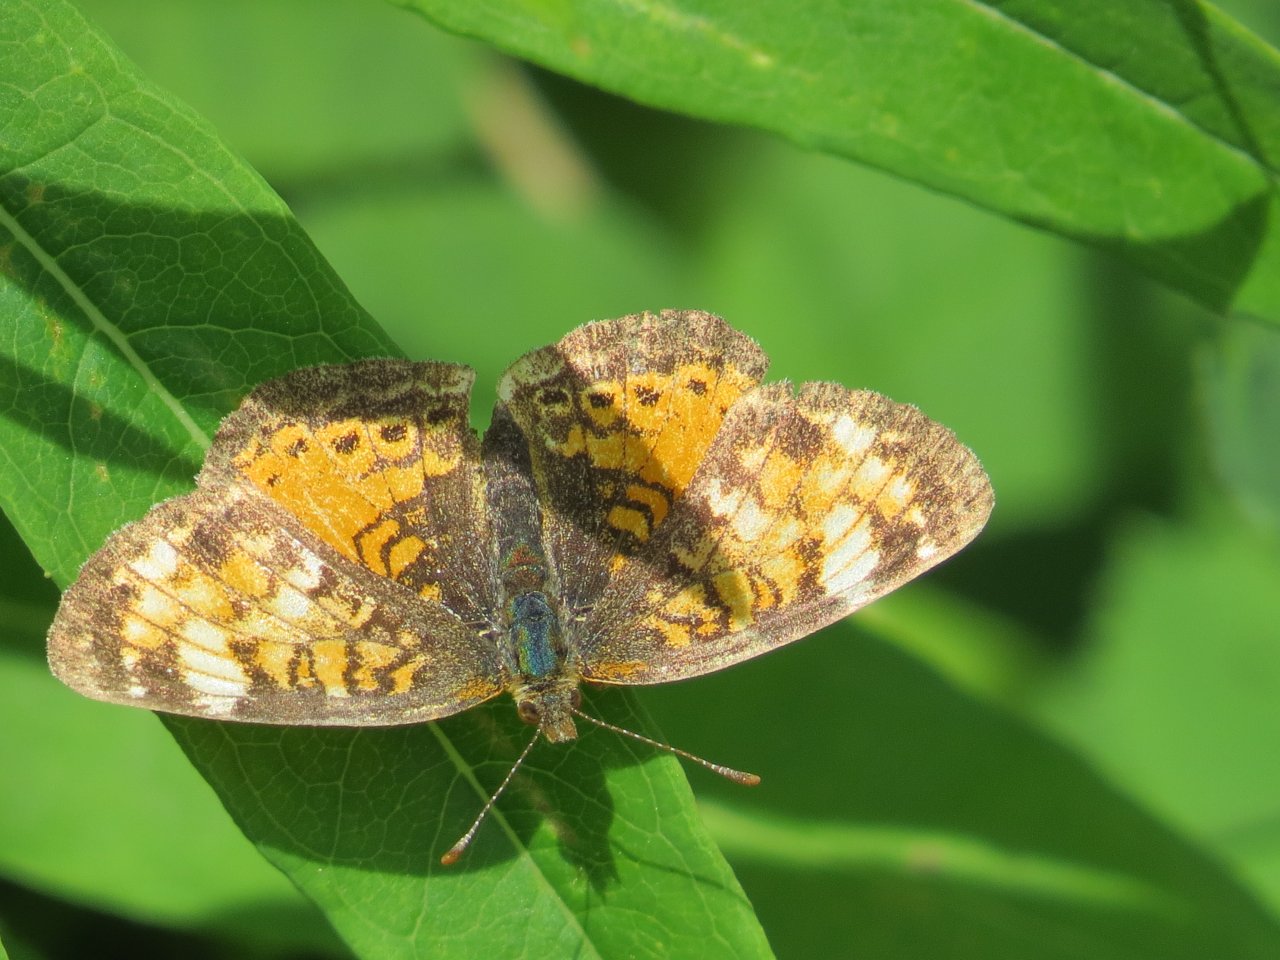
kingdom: Animalia
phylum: Arthropoda
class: Insecta
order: Lepidoptera
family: Nymphalidae
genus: Phyciodes
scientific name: Phyciodes batesii
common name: Tawny Crescent
